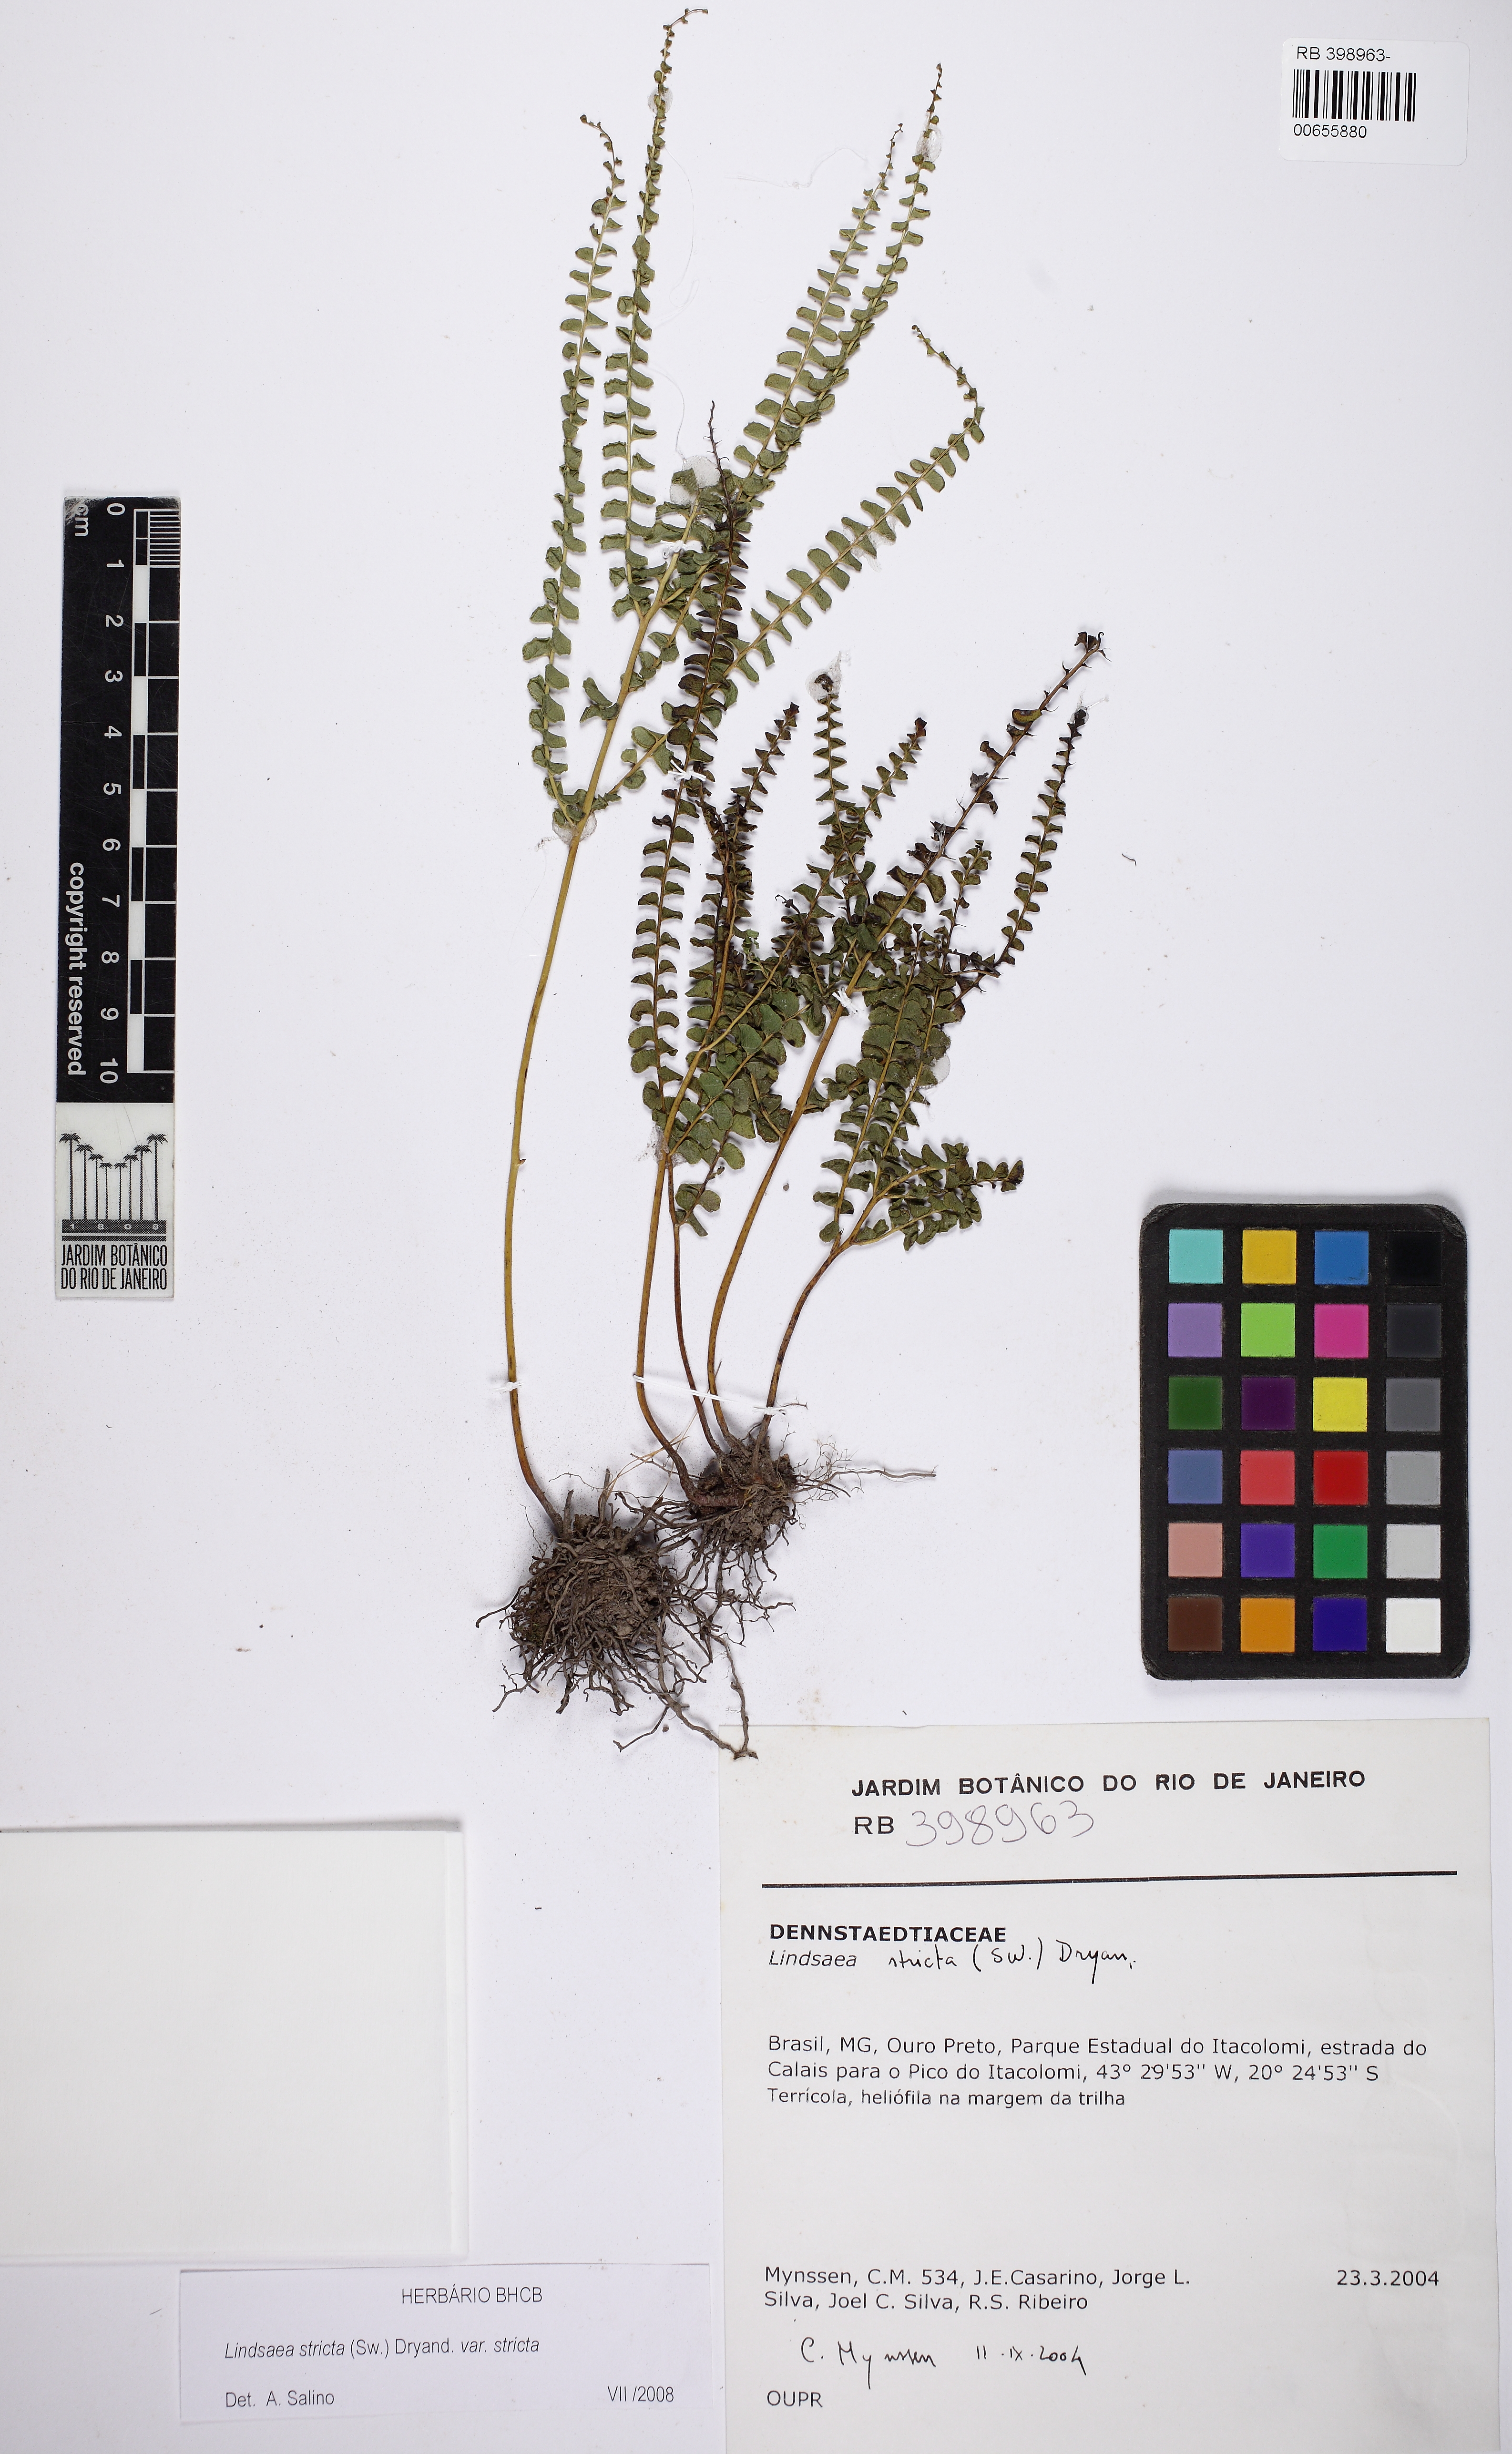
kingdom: Plantae
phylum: Tracheophyta
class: Polypodiopsida
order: Polypodiales
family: Lindsaeaceae
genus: Lindsaea
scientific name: Lindsaea stricta
